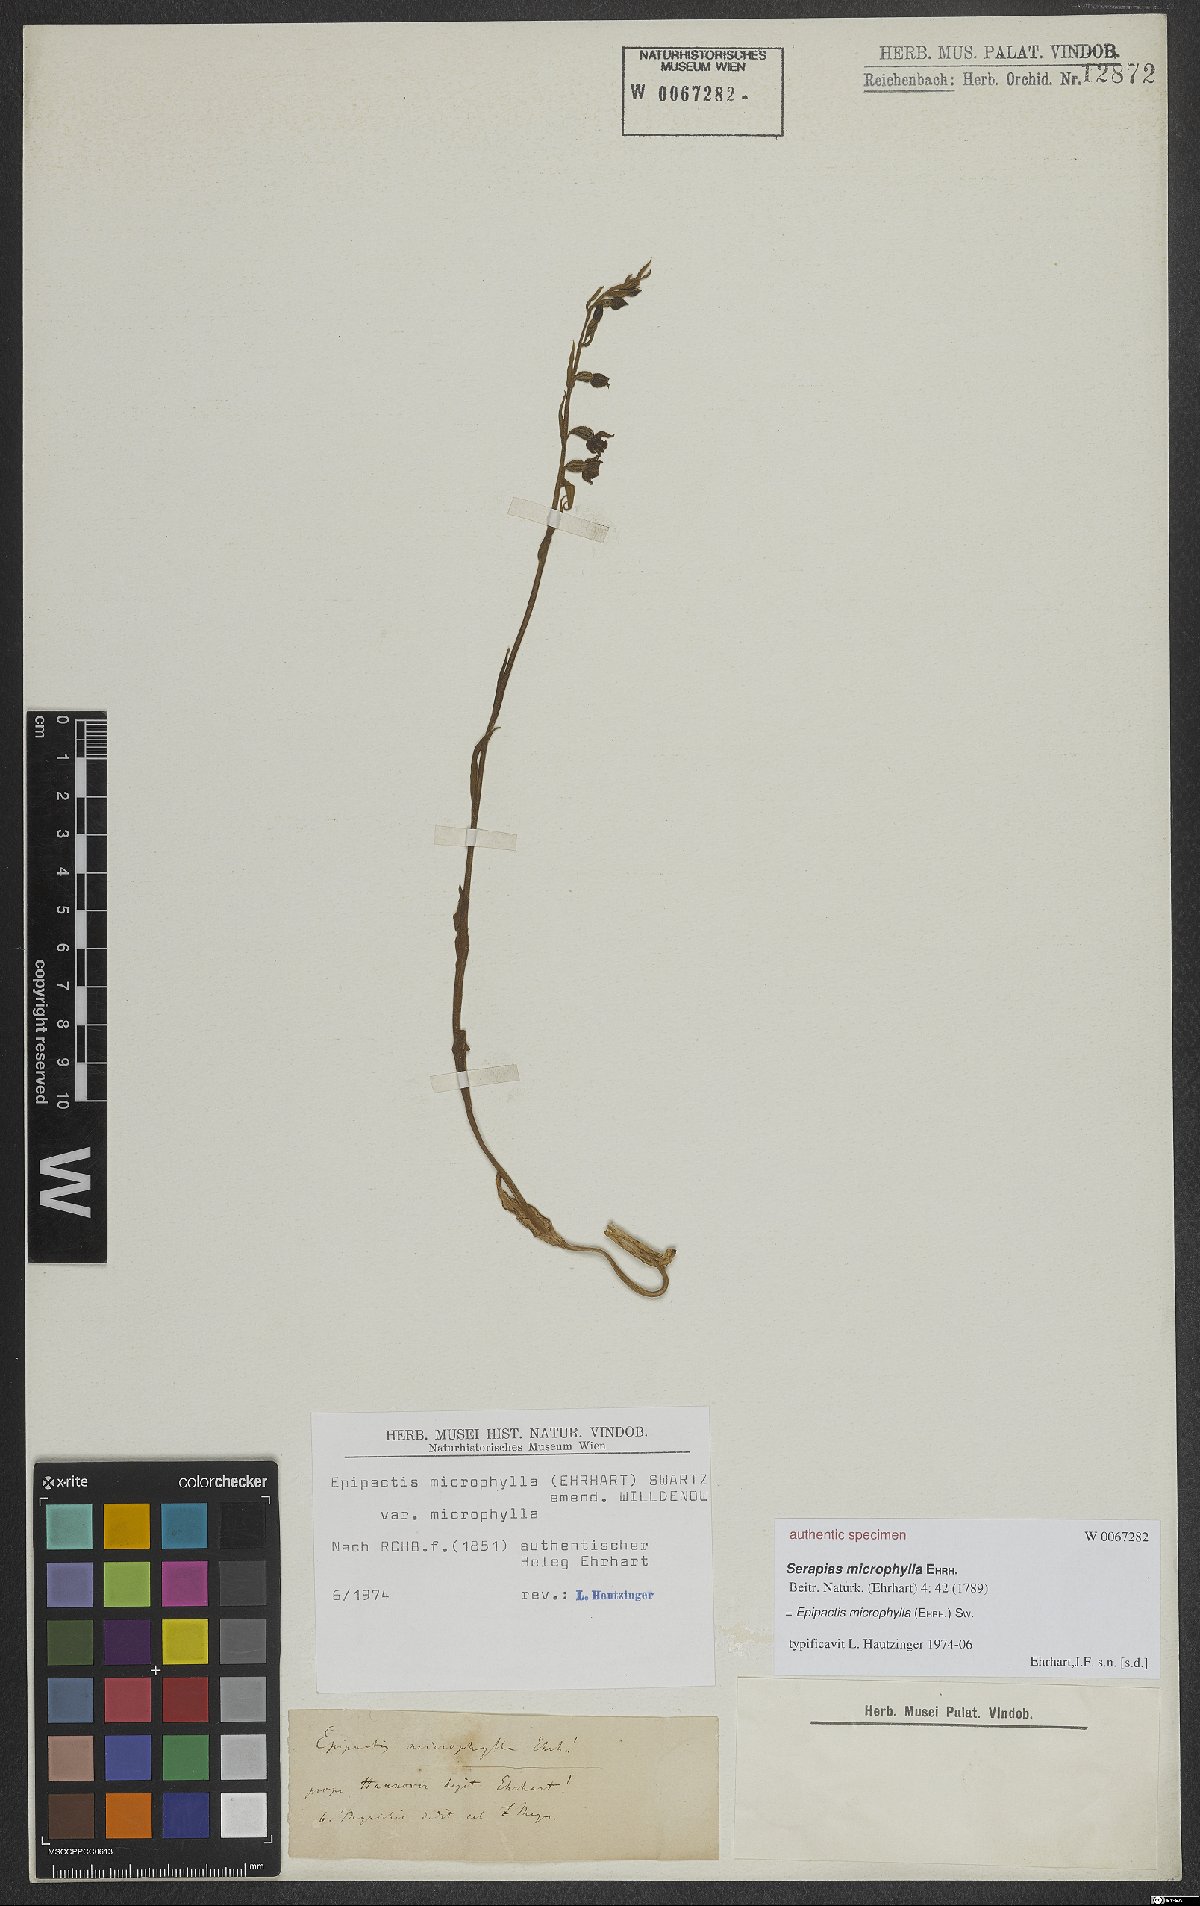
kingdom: Plantae
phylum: Tracheophyta
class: Liliopsida
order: Asparagales
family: Orchidaceae
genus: Epipactis
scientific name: Epipactis microphylla
